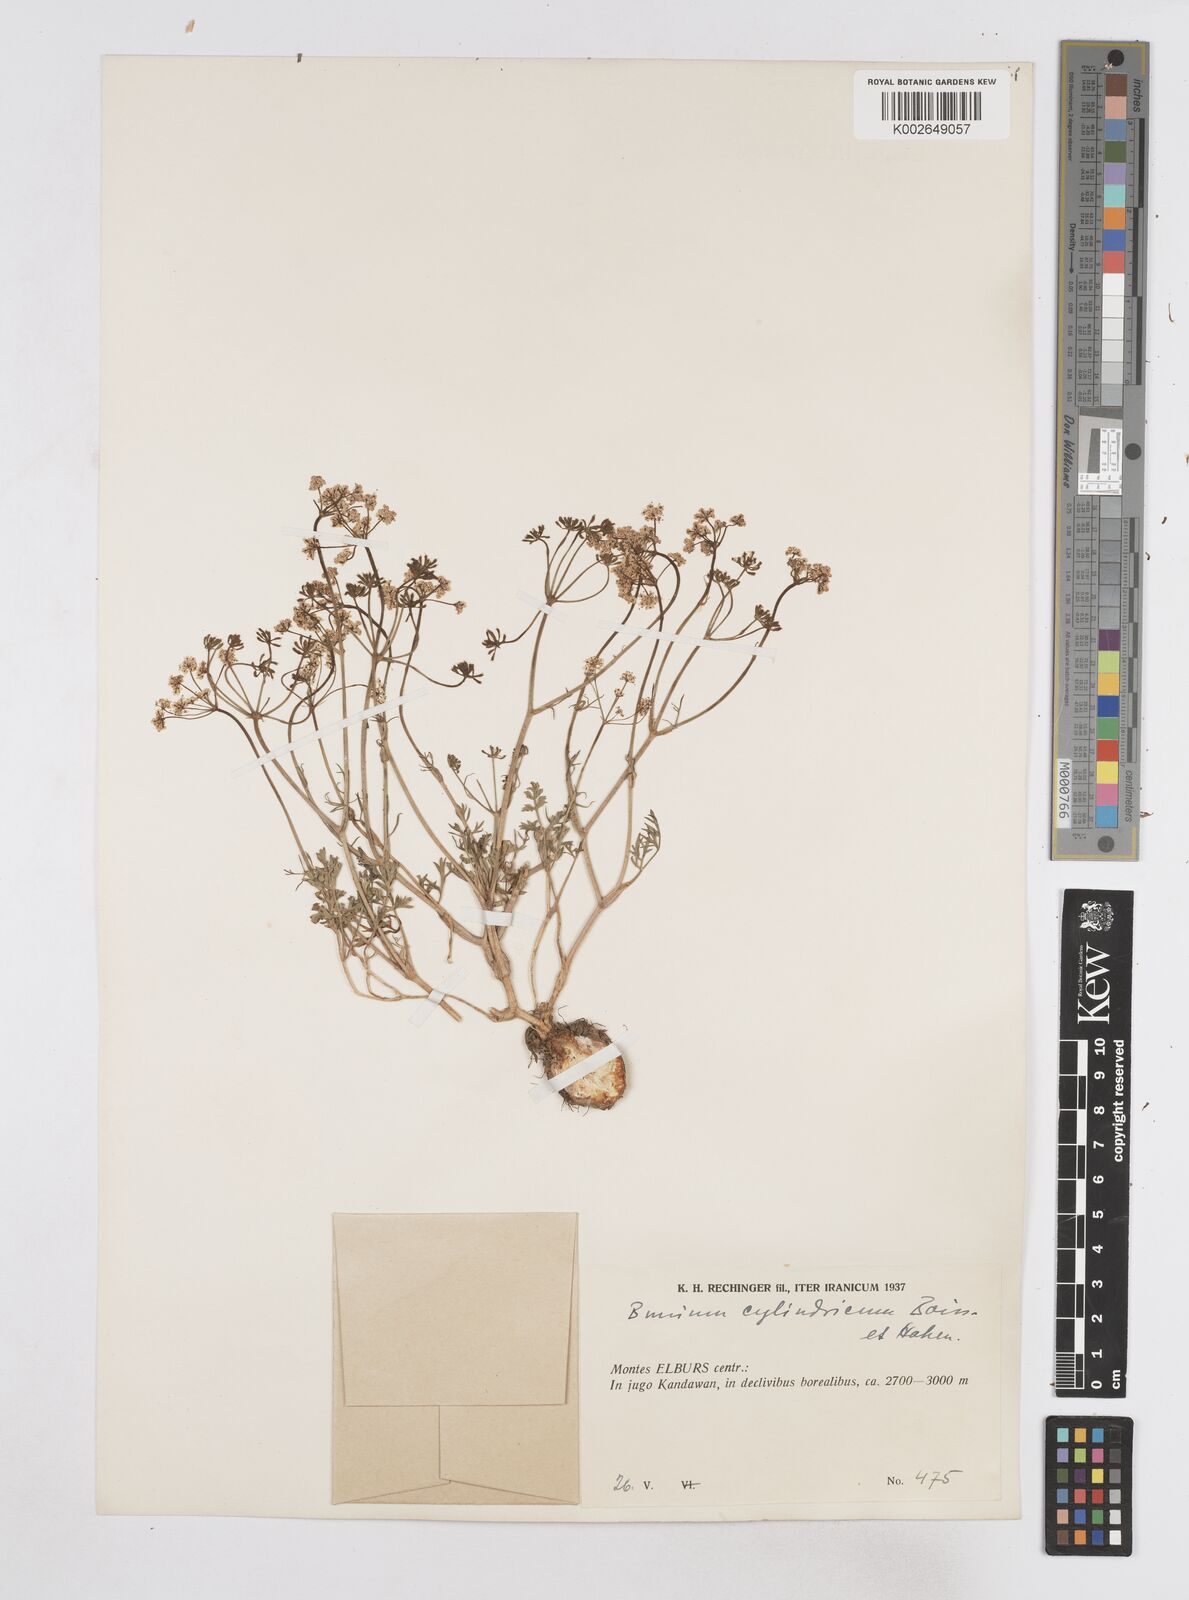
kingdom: Plantae
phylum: Tracheophyta
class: Magnoliopsida
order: Apiales
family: Apiaceae
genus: Elwendia
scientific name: Elwendia cylindrica
